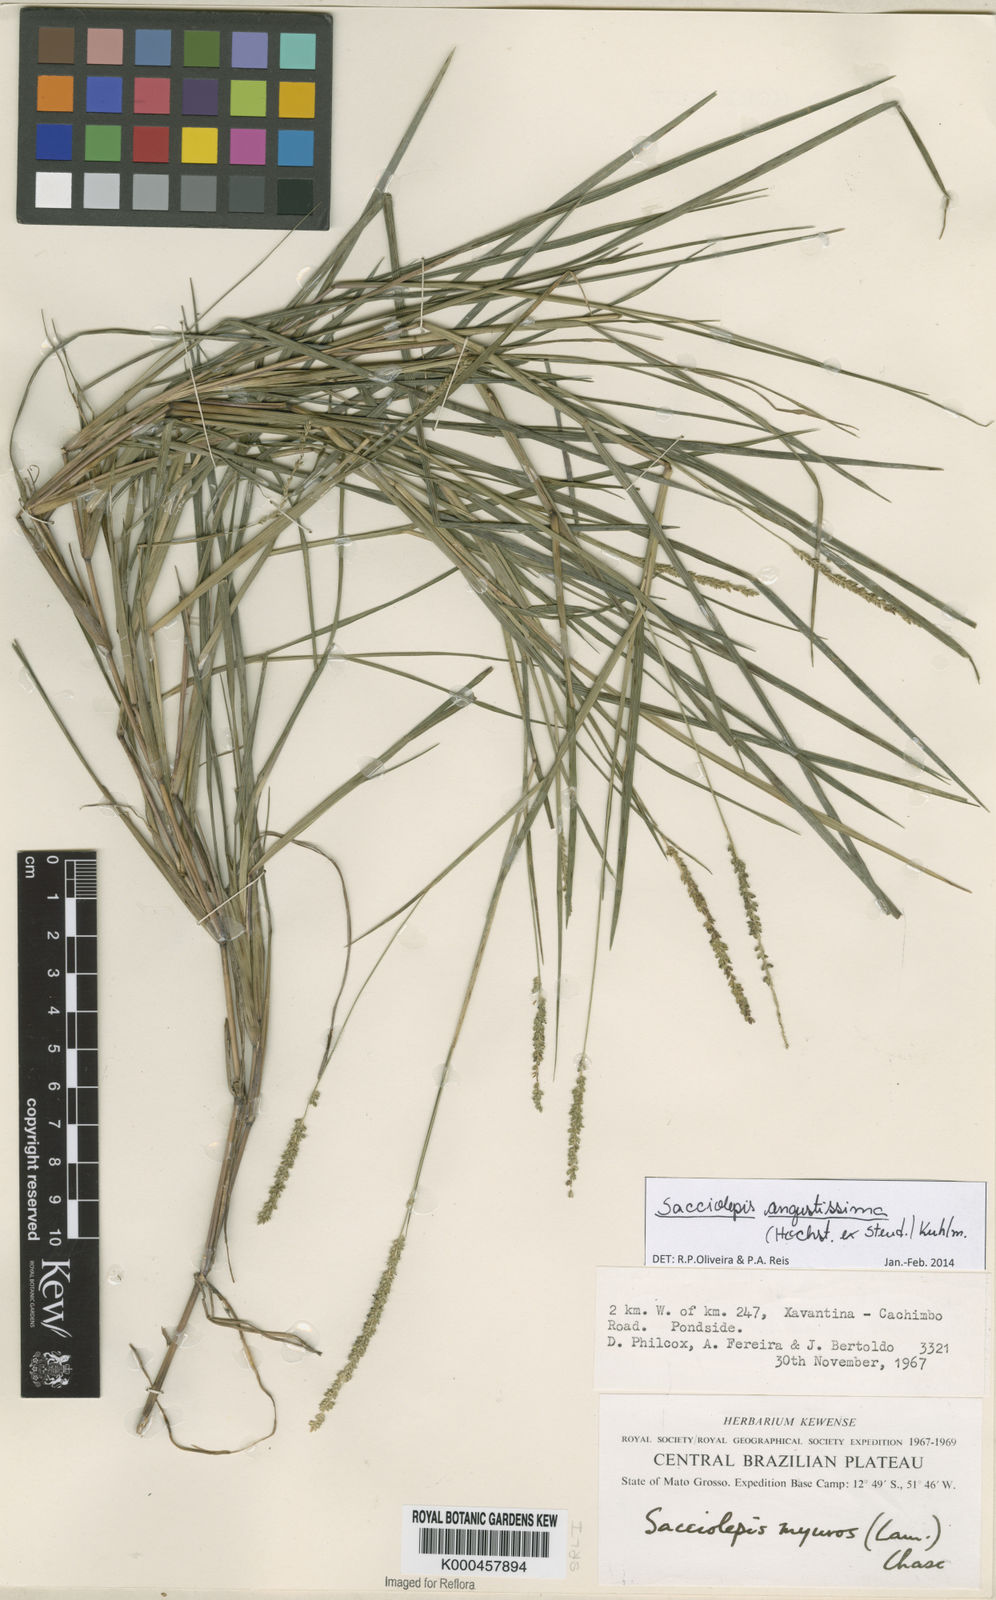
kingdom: Plantae
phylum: Tracheophyta
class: Liliopsida
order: Poales
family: Poaceae
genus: Sacciolepis
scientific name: Sacciolepis angustissima
